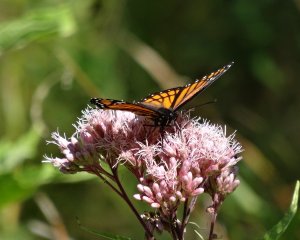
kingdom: Animalia
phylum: Arthropoda
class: Insecta
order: Lepidoptera
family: Nymphalidae
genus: Limenitis
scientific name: Limenitis archippus
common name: Viceroy
